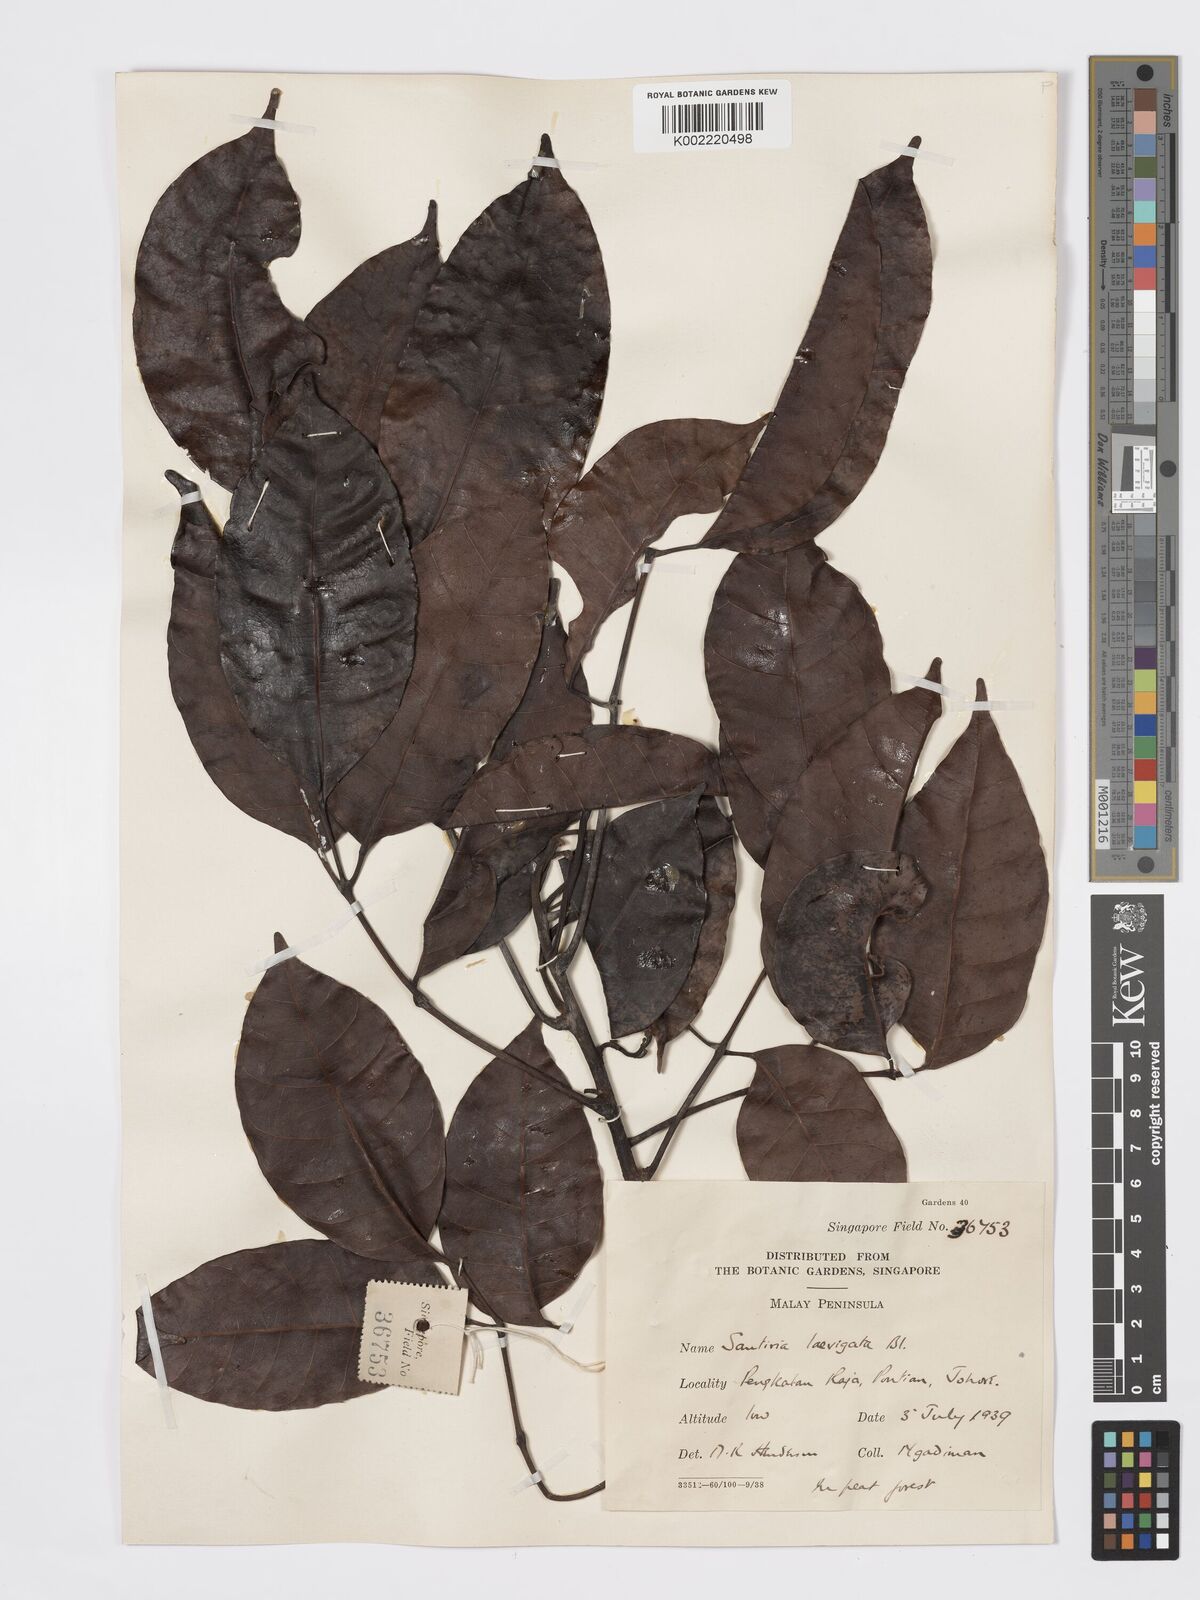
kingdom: Plantae
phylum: Tracheophyta
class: Magnoliopsida
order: Sapindales
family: Burseraceae
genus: Santiria
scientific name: Santiria laevigata
